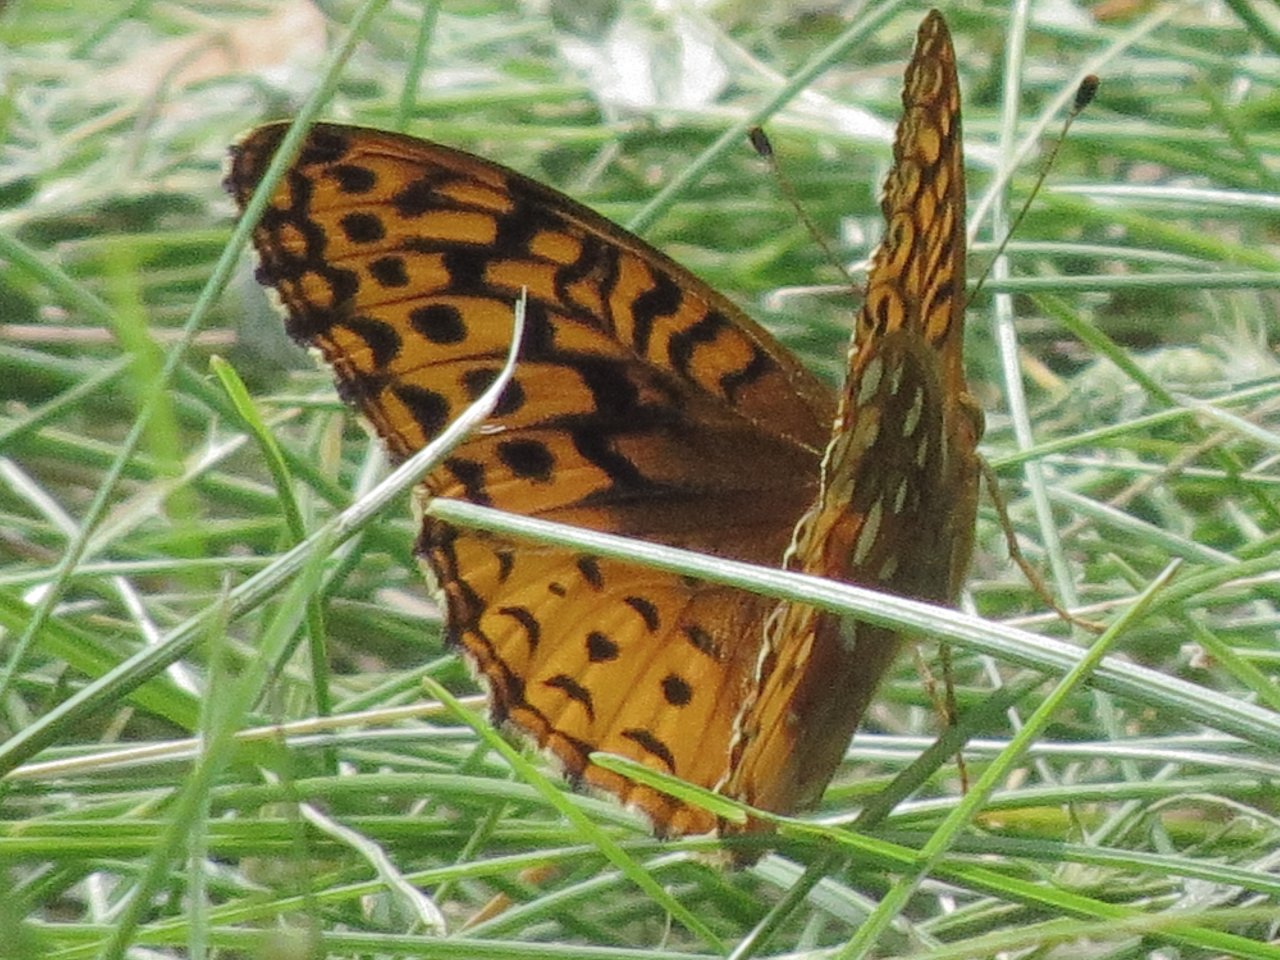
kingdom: Animalia
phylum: Arthropoda
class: Insecta
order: Lepidoptera
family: Nymphalidae
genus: Speyeria
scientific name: Speyeria atlantis
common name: Northwestern Fritillary
